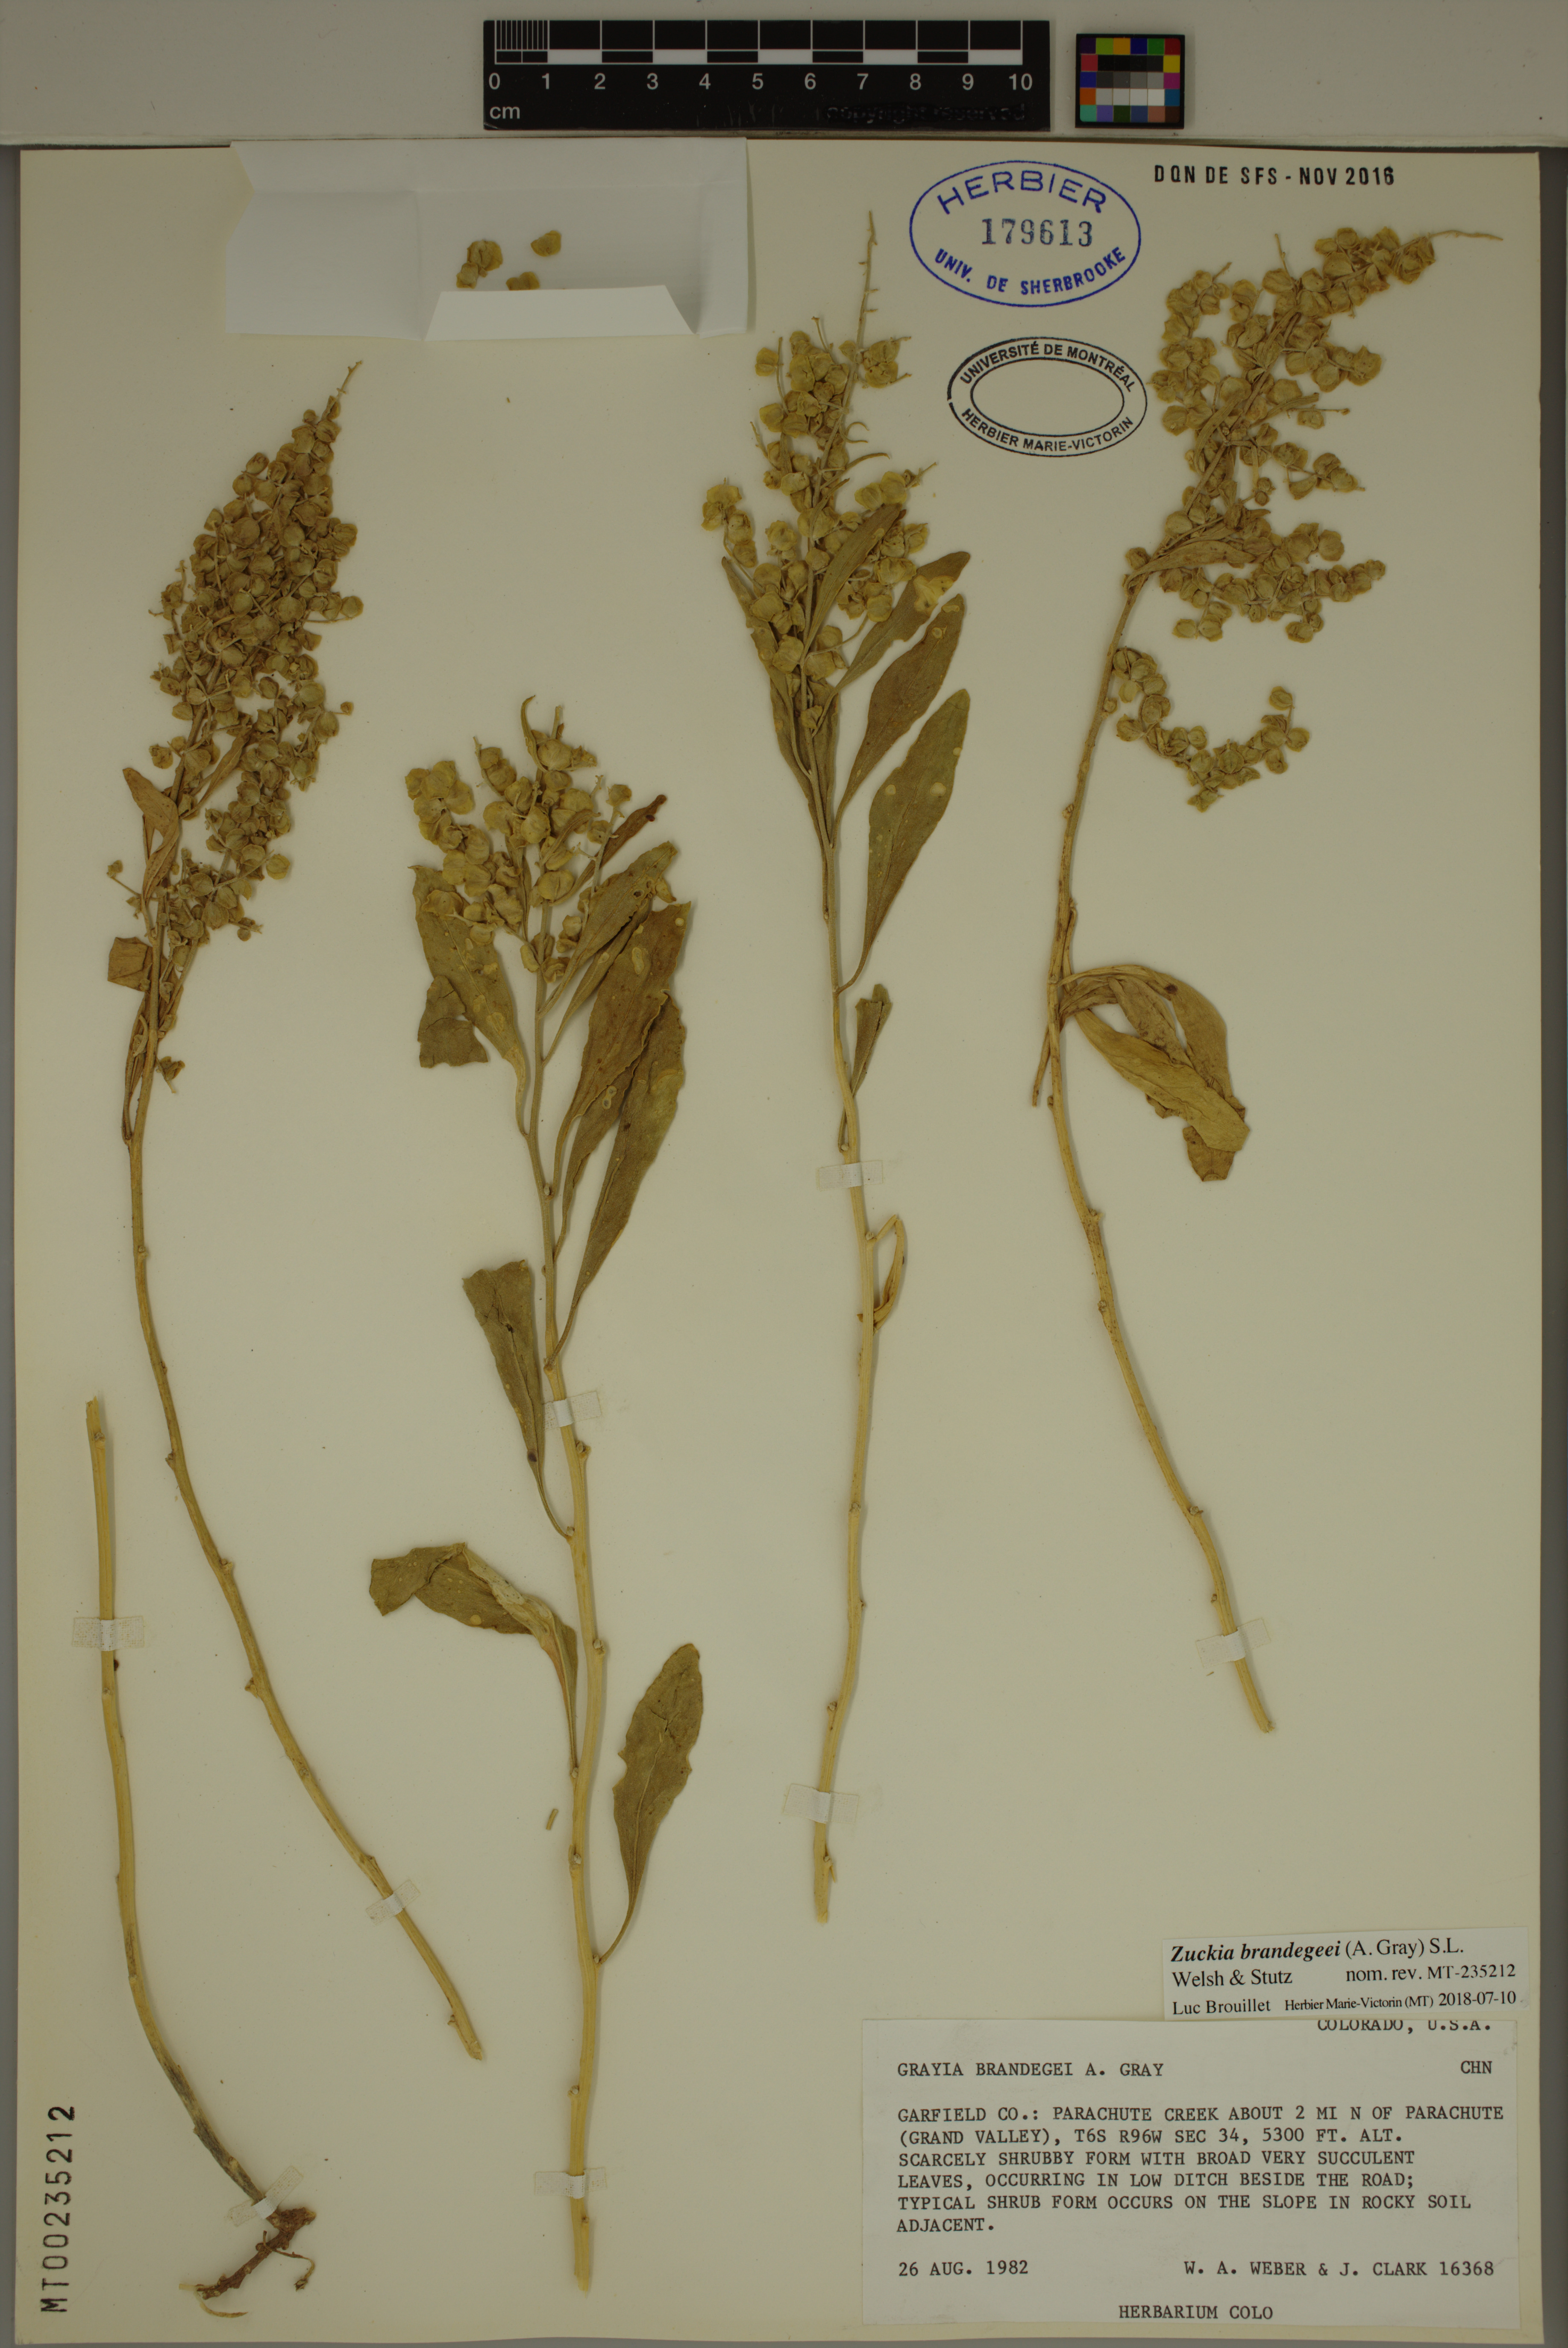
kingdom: Plantae
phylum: Tracheophyta
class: Magnoliopsida
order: Caryophyllales
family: Amaranthaceae
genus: Grayia
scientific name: Grayia brandegeei
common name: Brandegee's siltbush
